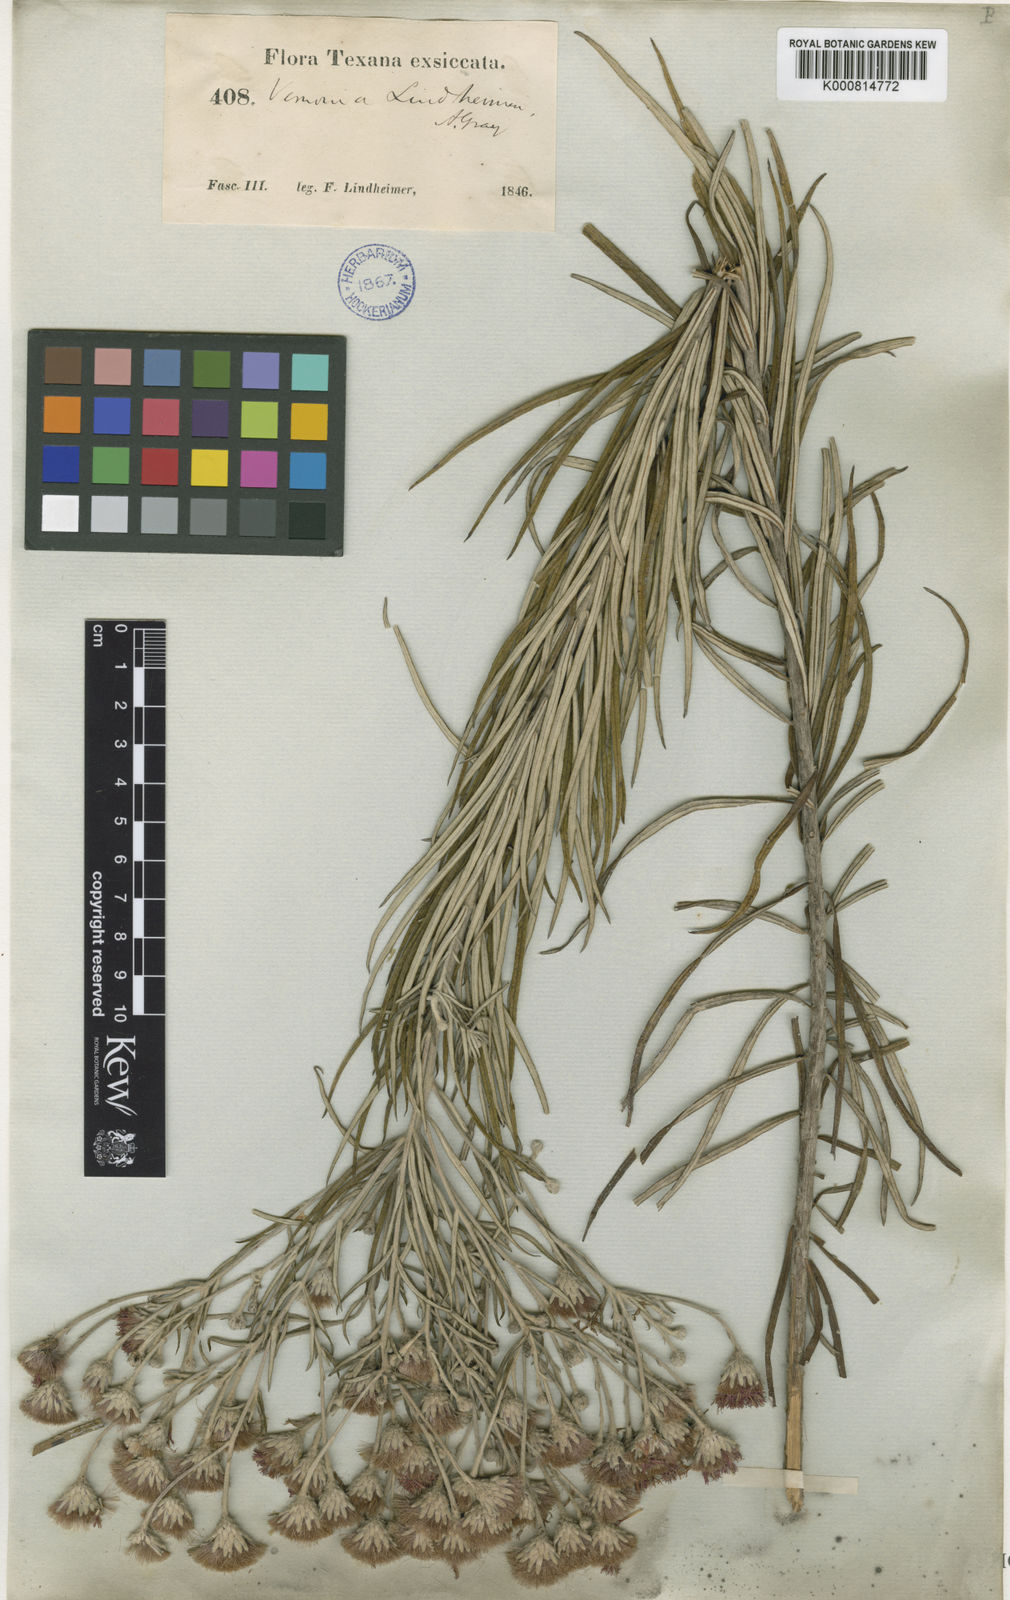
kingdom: Plantae
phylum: Tracheophyta
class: Magnoliopsida
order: Asterales
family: Asteraceae
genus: Vernonia
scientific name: Vernonia lindheimeri
